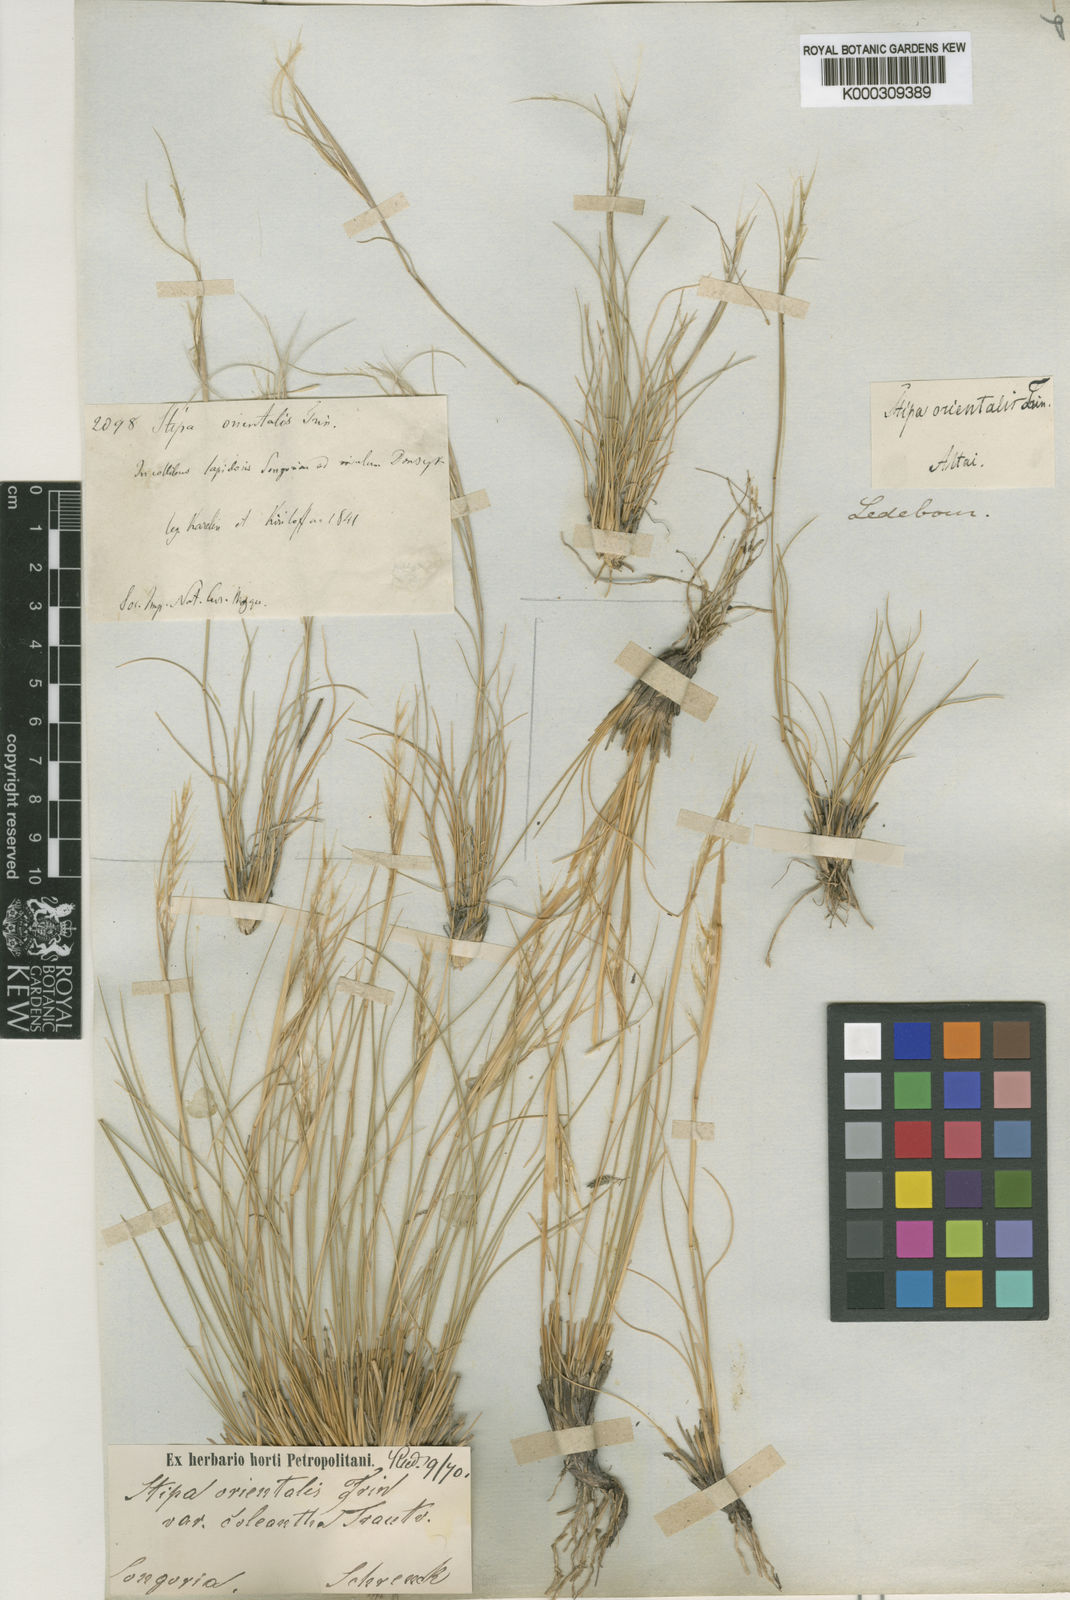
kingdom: Plantae
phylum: Tracheophyta
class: Liliopsida
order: Poales
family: Poaceae
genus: Stipa
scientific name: Stipa orientalis
